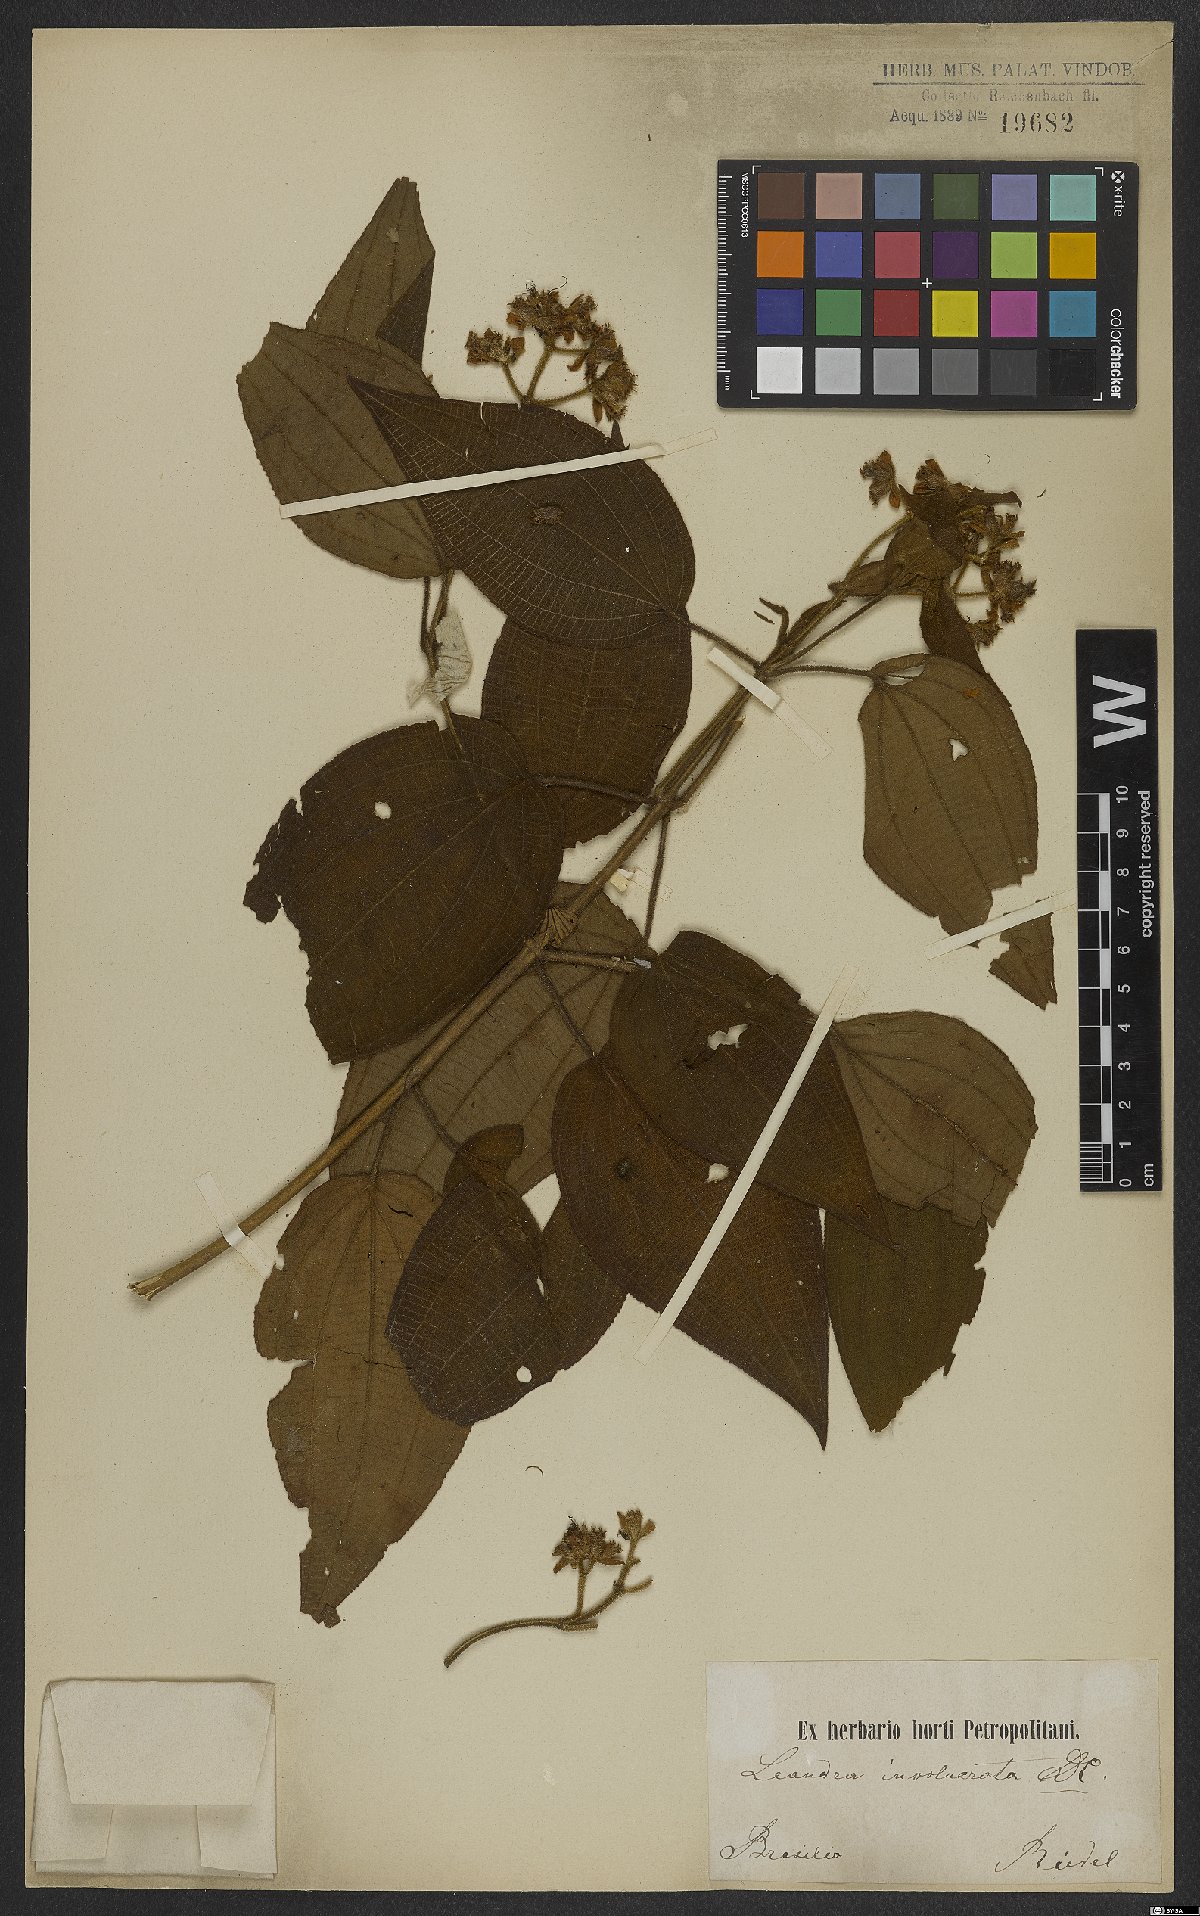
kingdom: Plantae
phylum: Tracheophyta
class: Magnoliopsida
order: Myrtales
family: Melastomataceae
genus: Miconia
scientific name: Miconia leaumbellata
